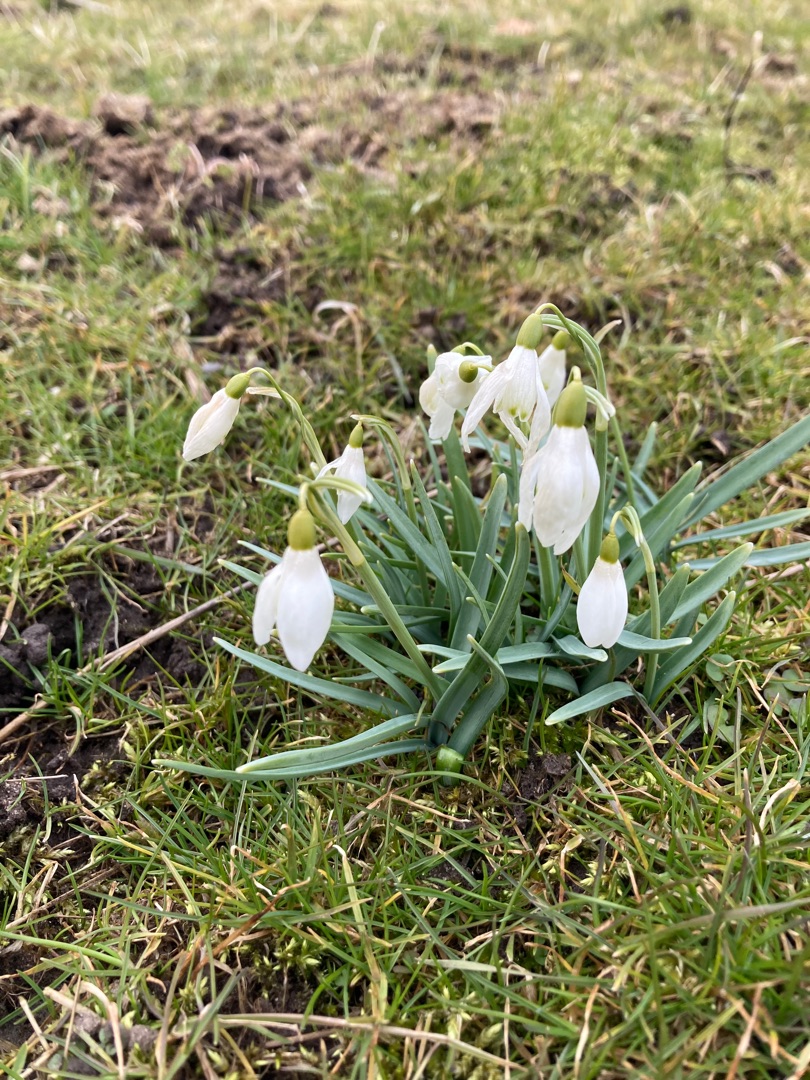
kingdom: Plantae
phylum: Tracheophyta
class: Liliopsida
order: Asparagales
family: Amaryllidaceae
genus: Galanthus
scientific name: Galanthus nivalis
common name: Vintergæk
